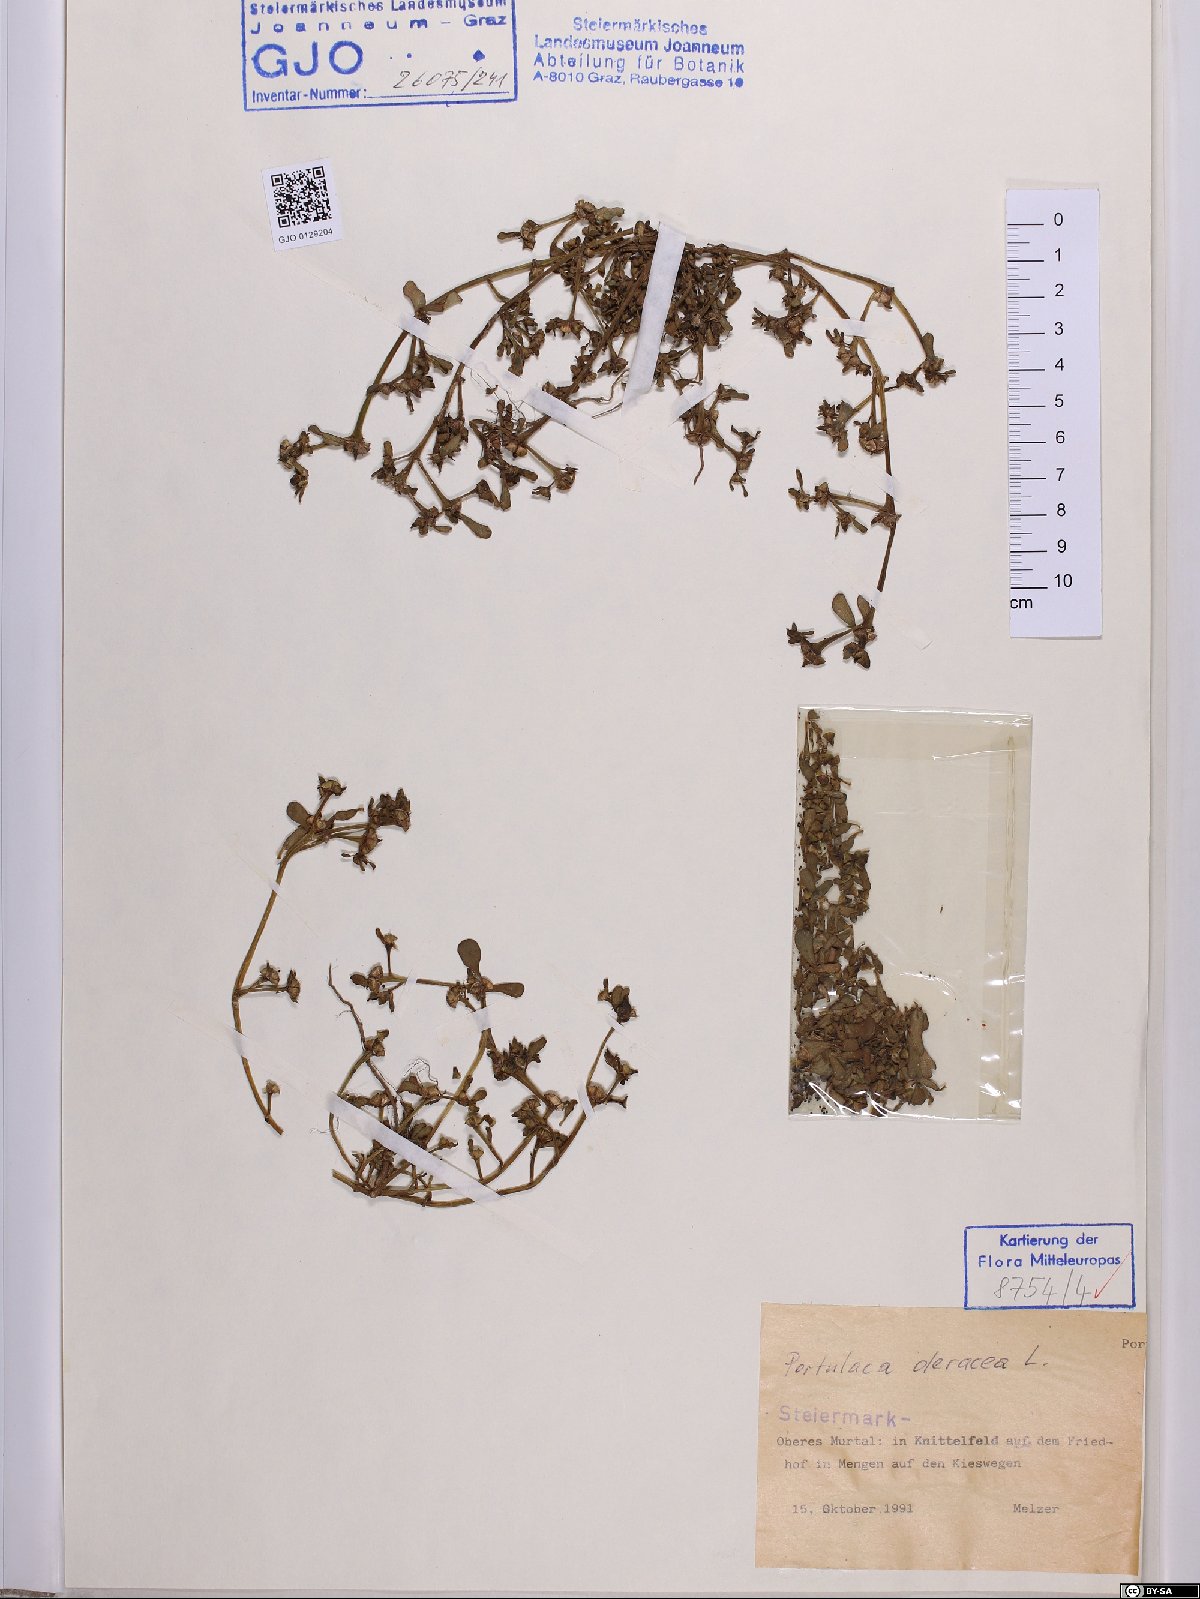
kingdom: Plantae
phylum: Tracheophyta
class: Magnoliopsida
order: Caryophyllales
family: Portulacaceae
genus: Portulaca
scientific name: Portulaca oleracea
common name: Common purslane
